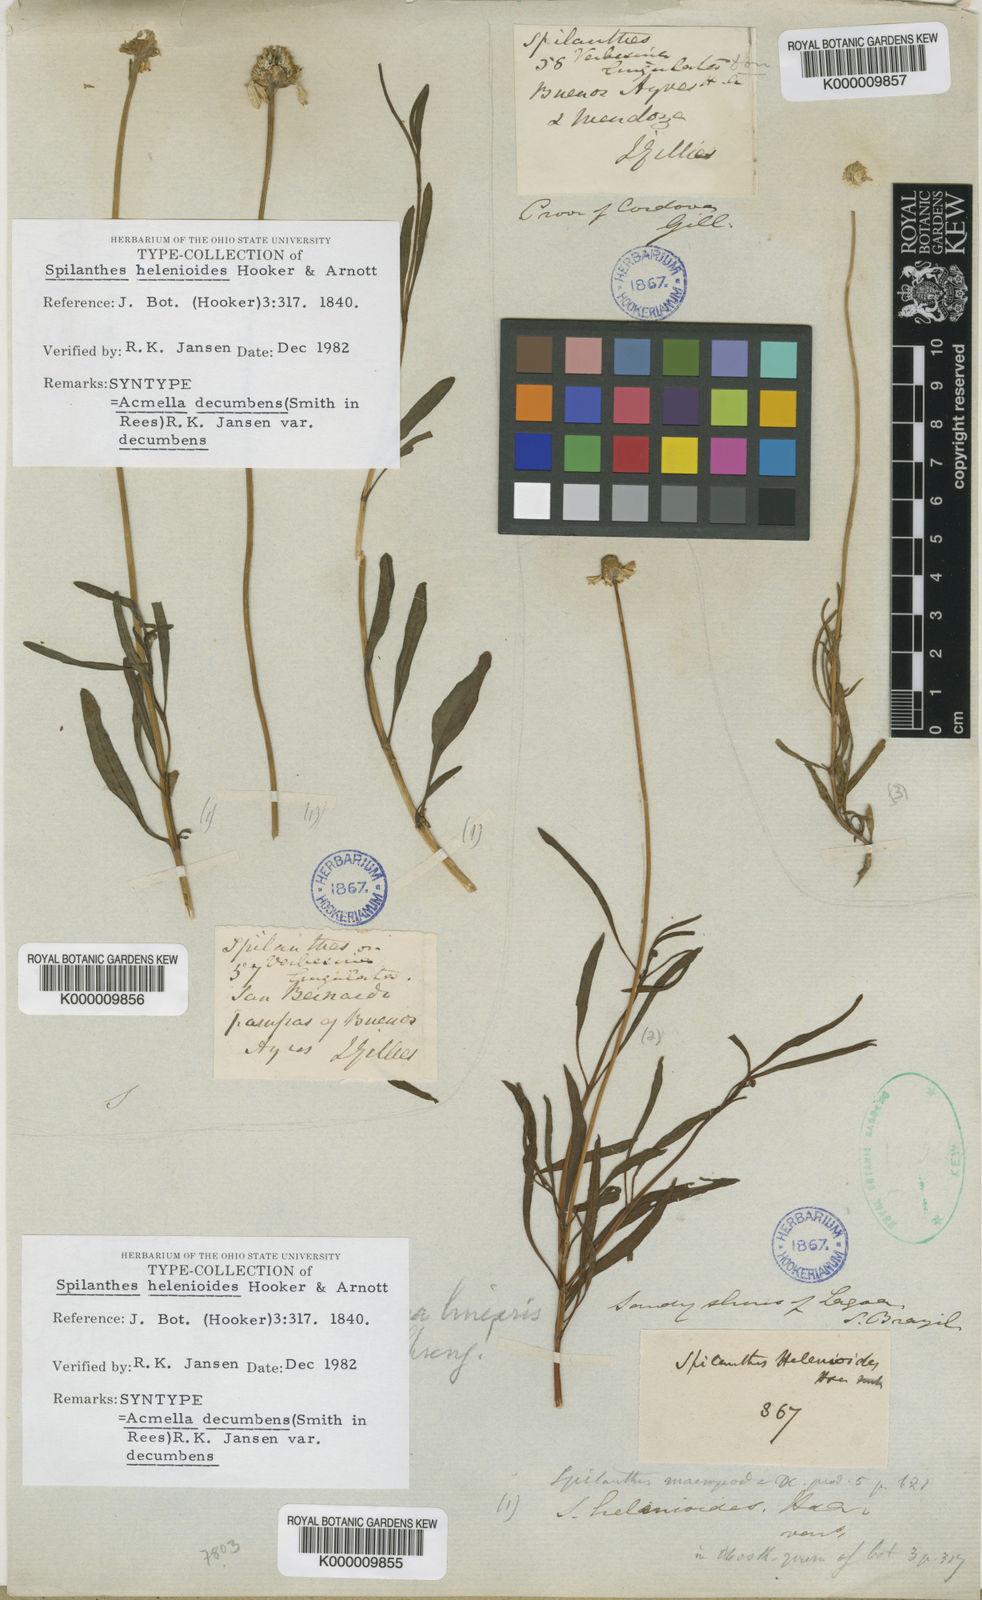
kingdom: Plantae
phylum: Tracheophyta
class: Magnoliopsida
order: Asterales
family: Asteraceae
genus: Acmella
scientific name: Acmella decumbens
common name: Creeping spotflower
